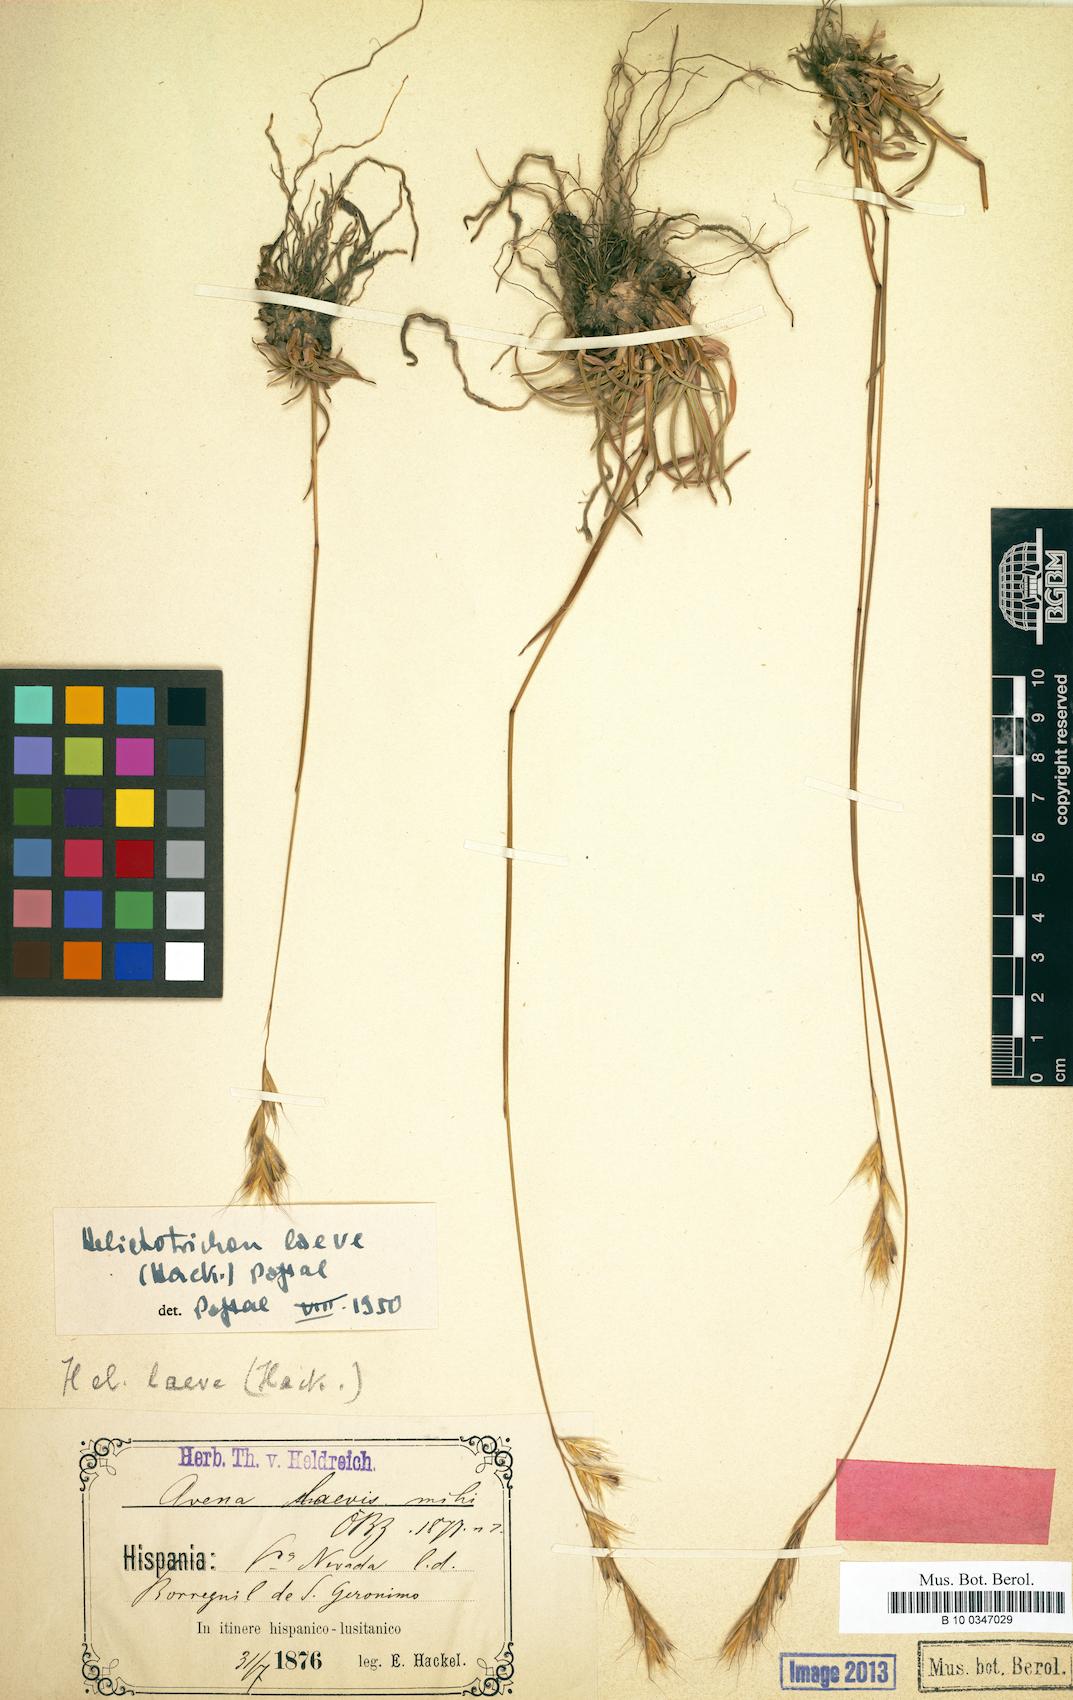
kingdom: Plantae
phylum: Tracheophyta
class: Liliopsida
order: Poales
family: Poaceae
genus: Helictochloa
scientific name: Helictochloa levis
